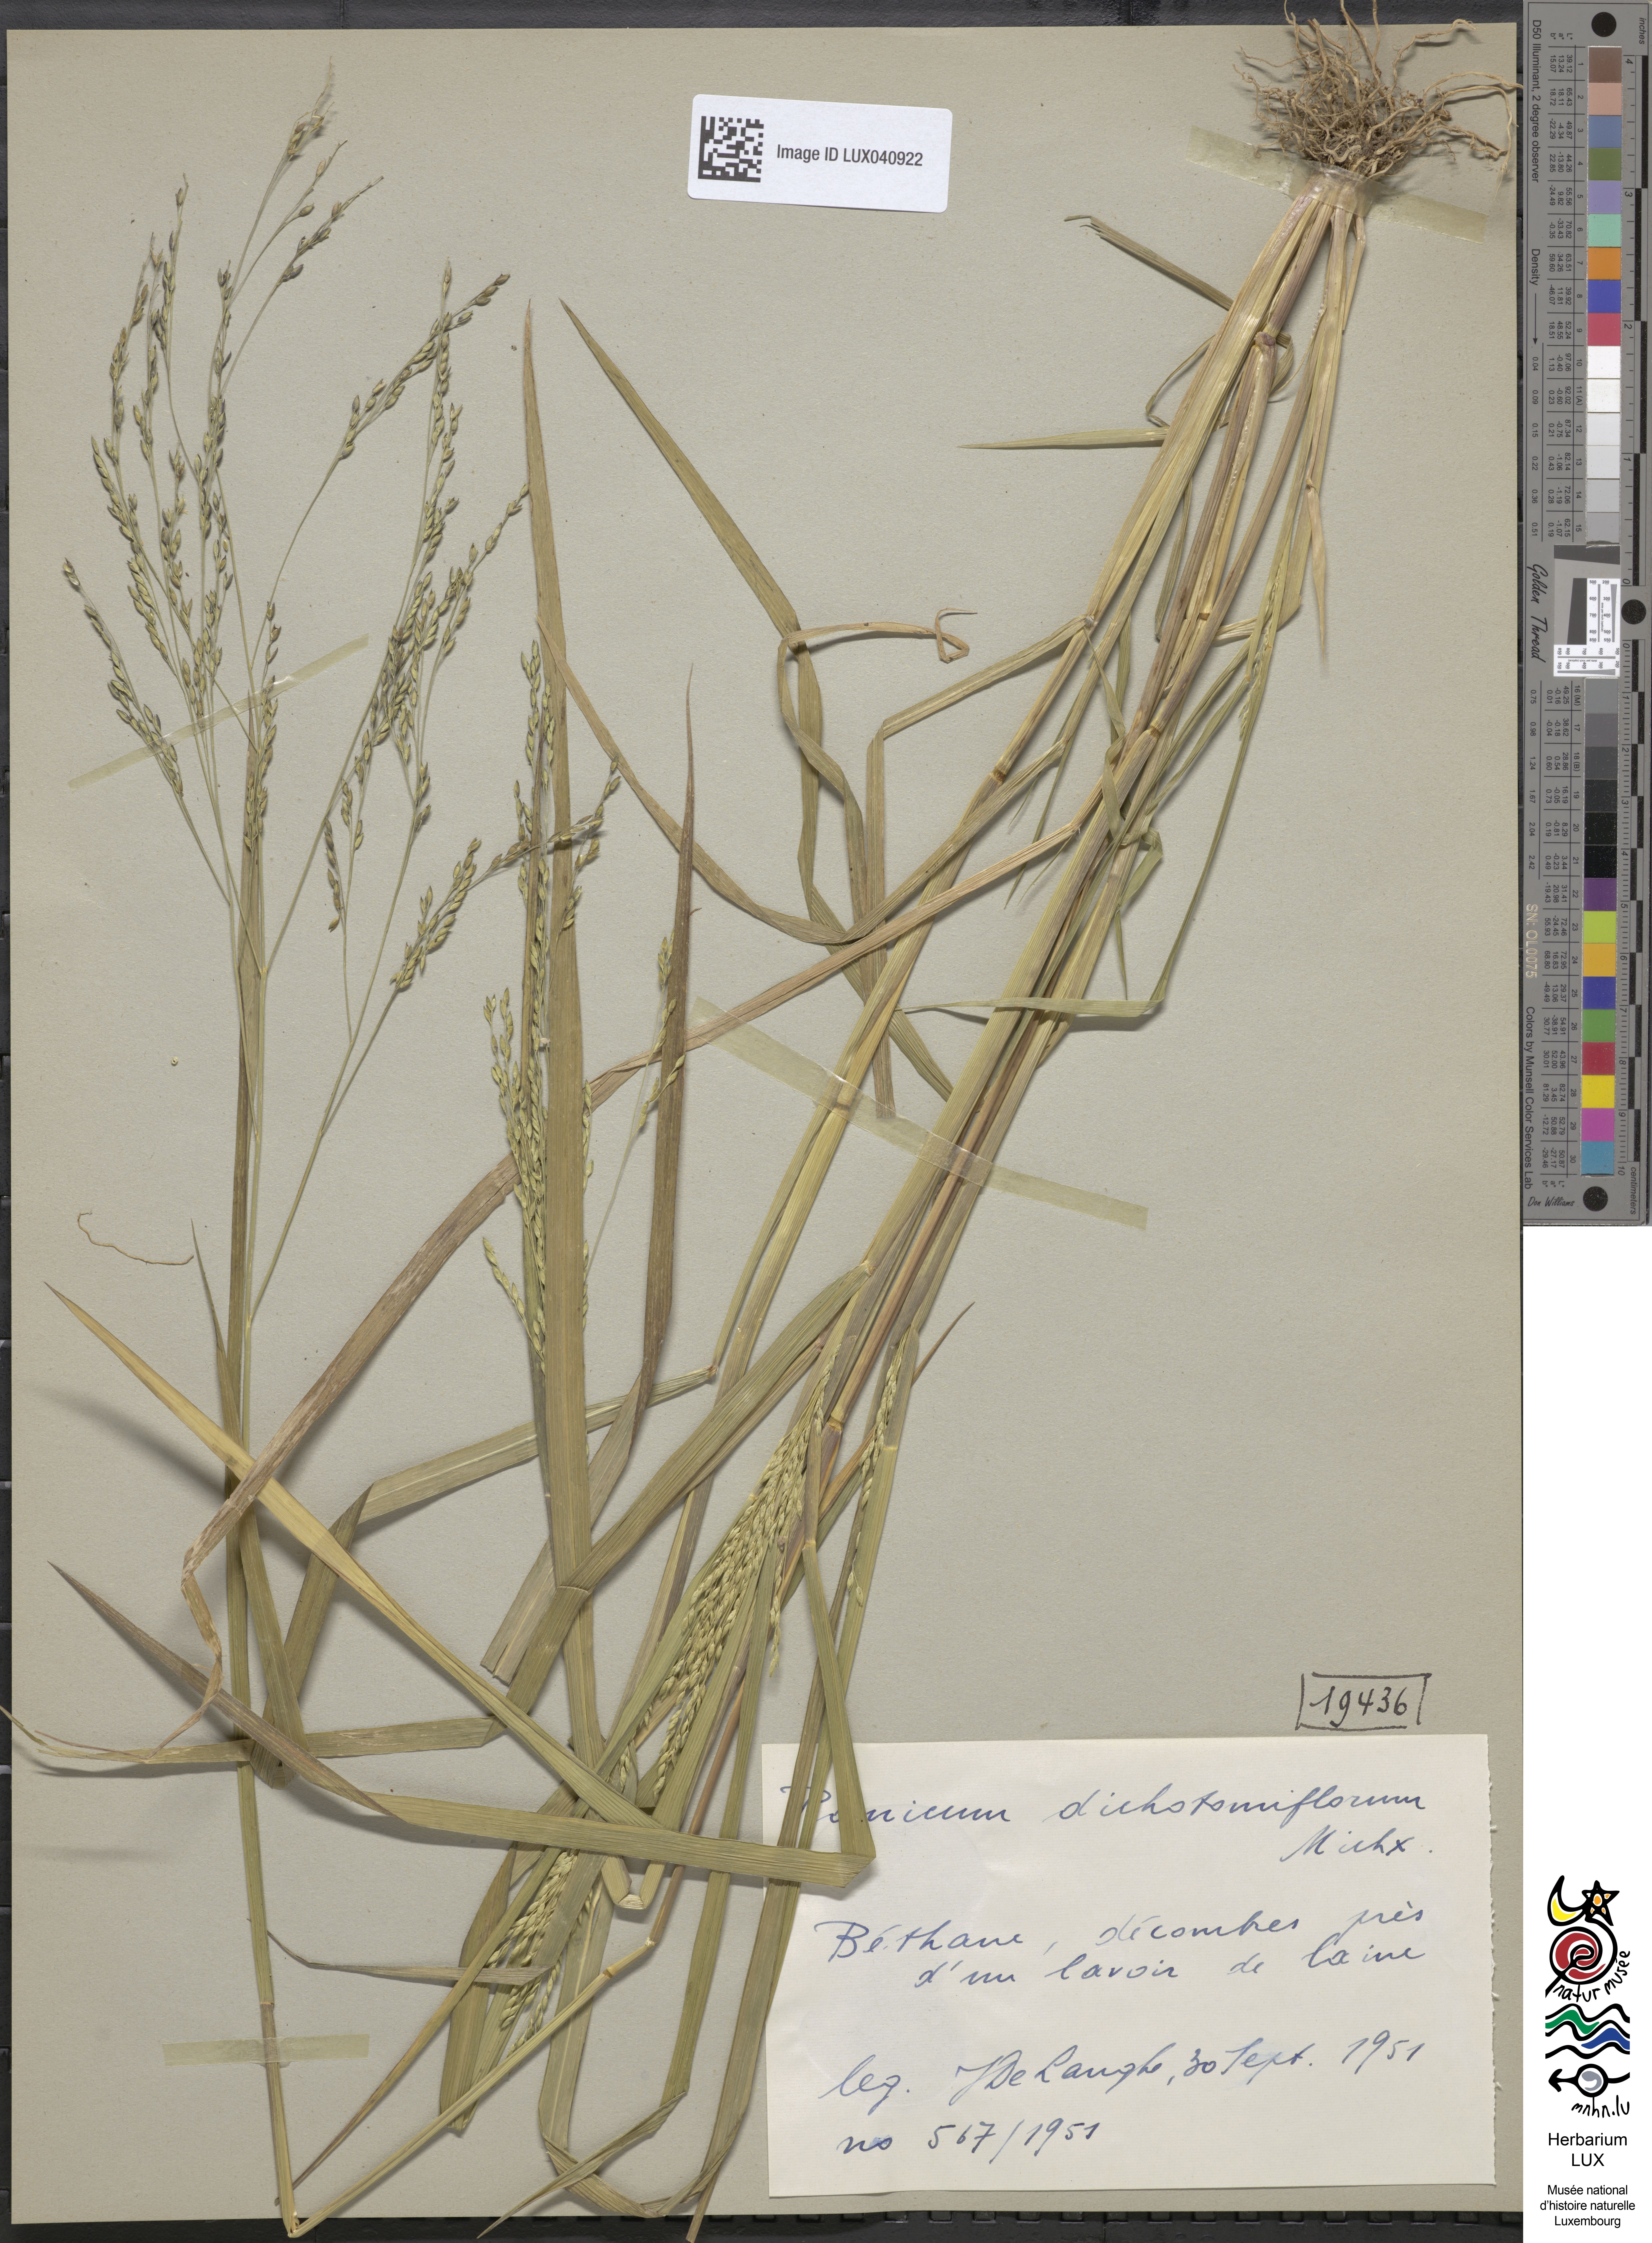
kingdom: Plantae
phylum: Tracheophyta
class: Liliopsida
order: Poales
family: Poaceae
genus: Panicum
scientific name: Panicum dichotomiflorum
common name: Autumn millet
